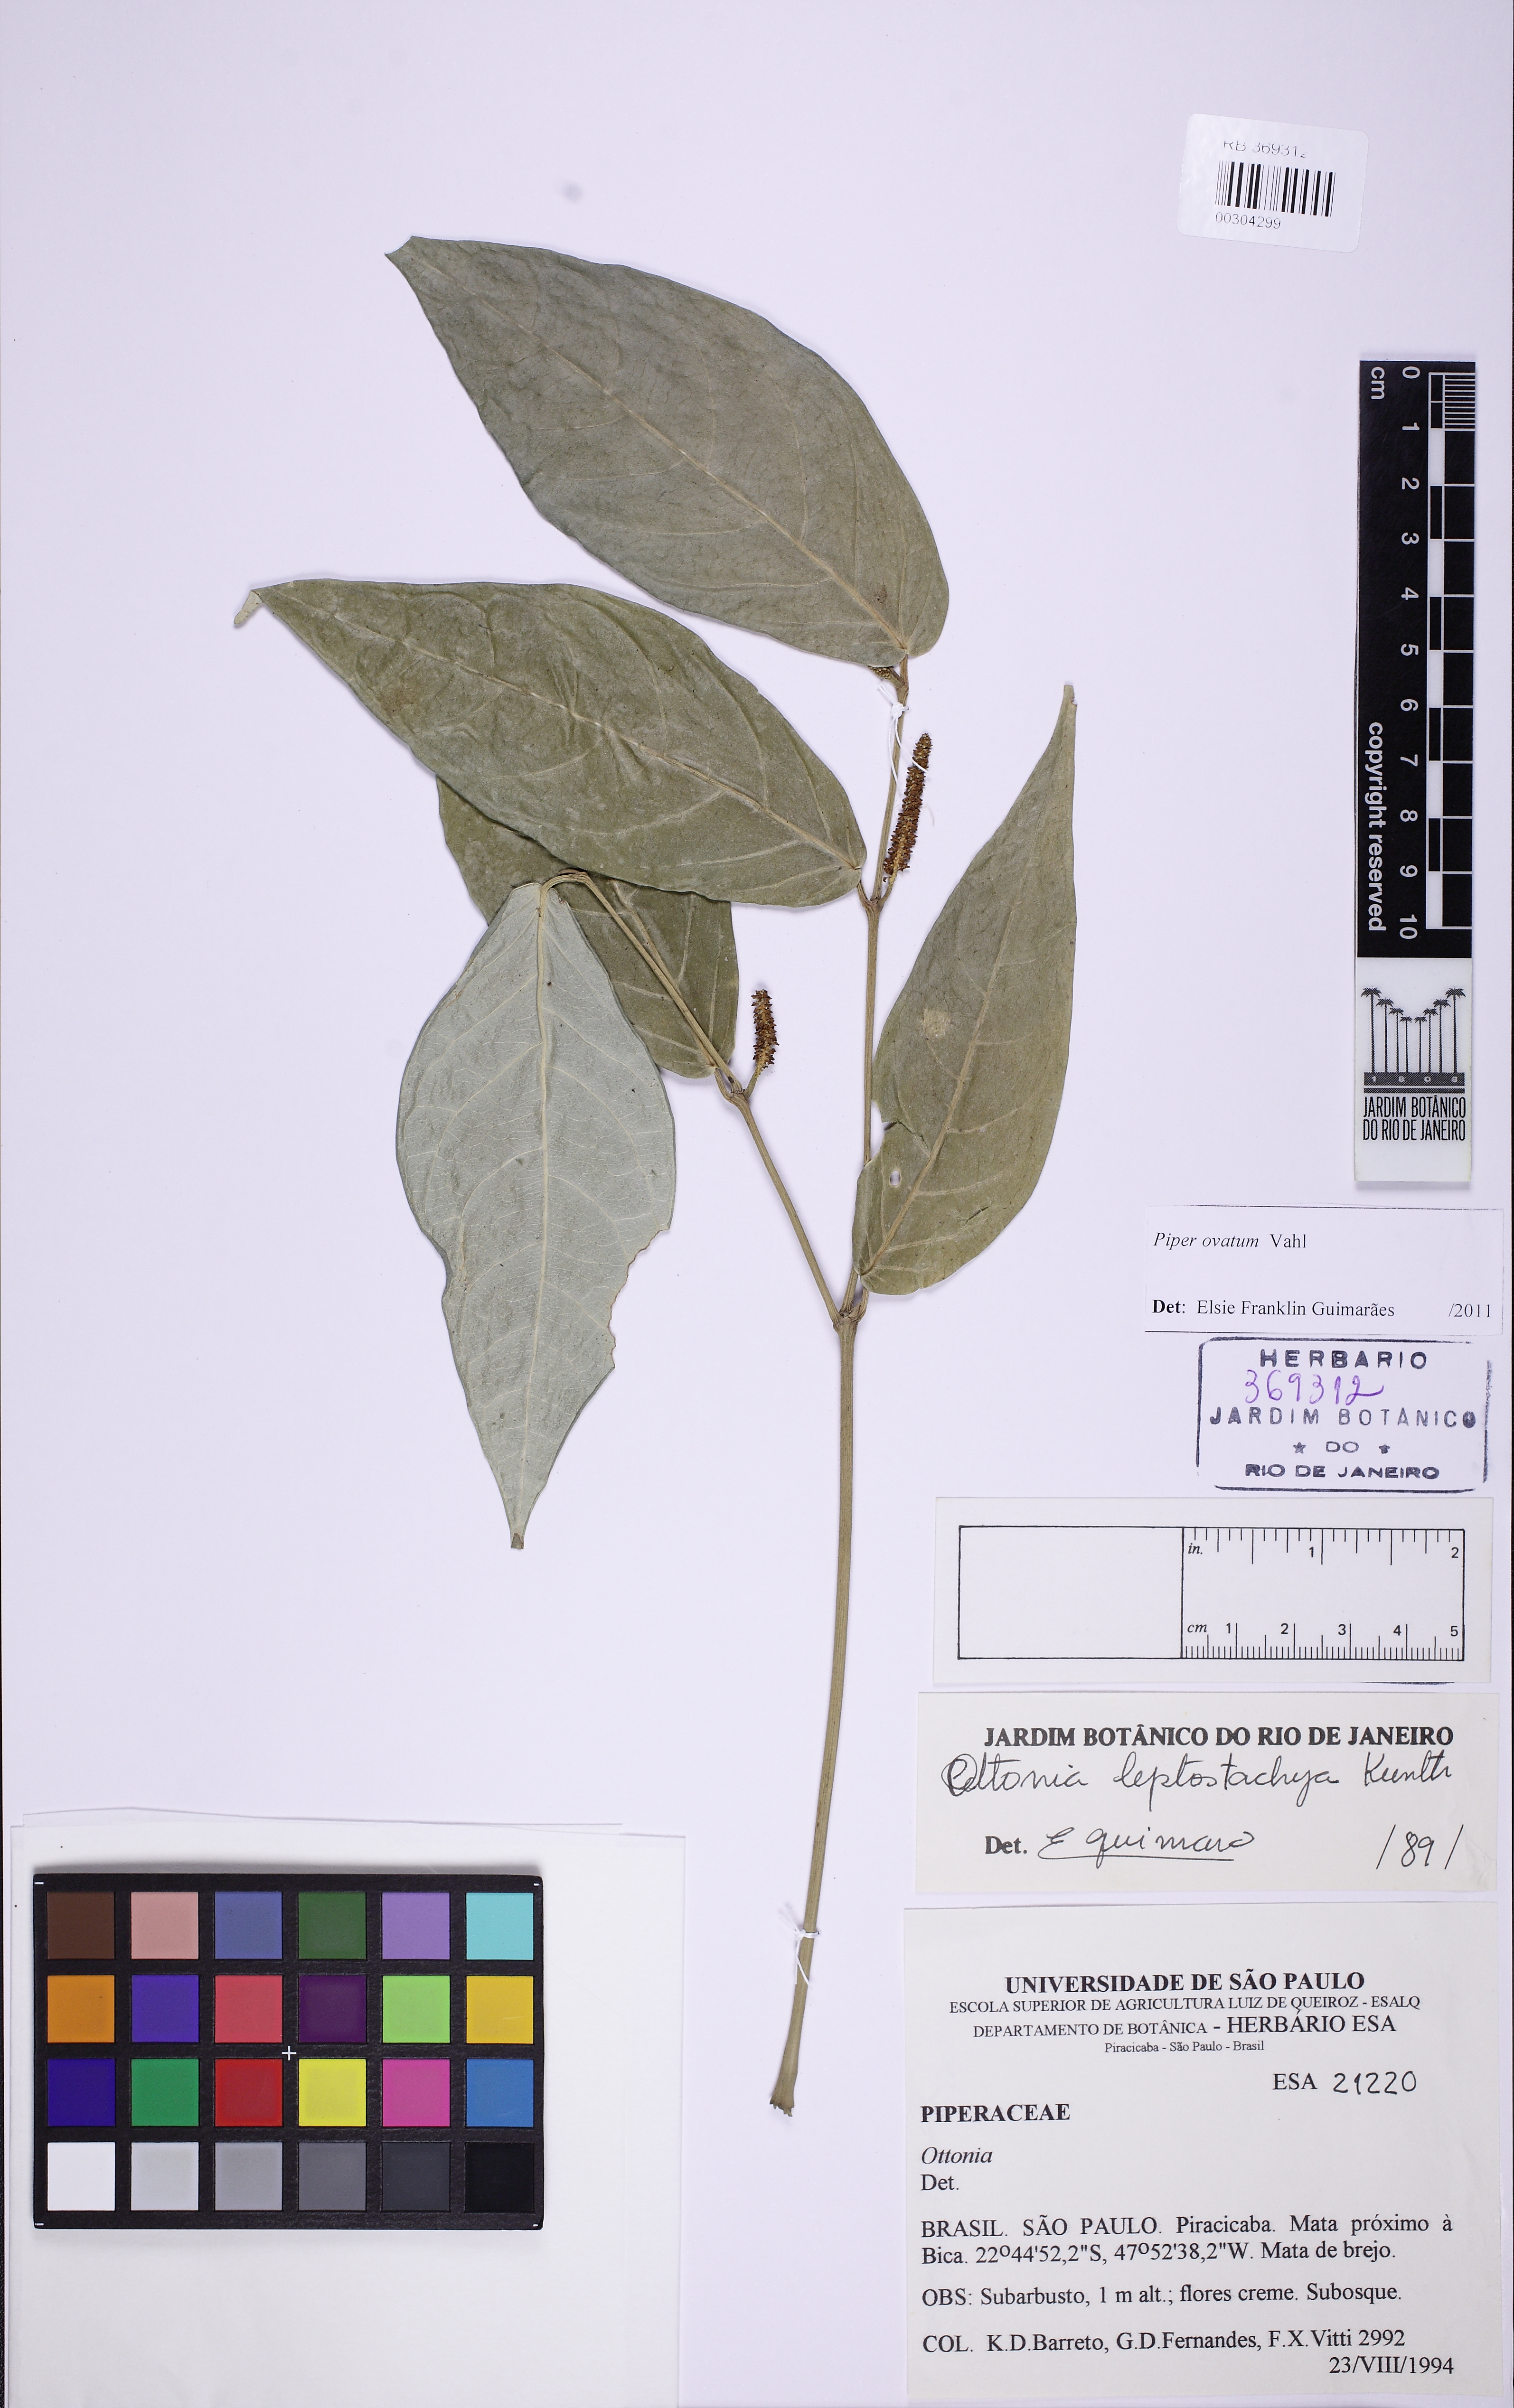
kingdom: Plantae
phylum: Tracheophyta
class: Magnoliopsida
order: Piperales
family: Piperaceae
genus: Piper
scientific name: Piper ovatum
